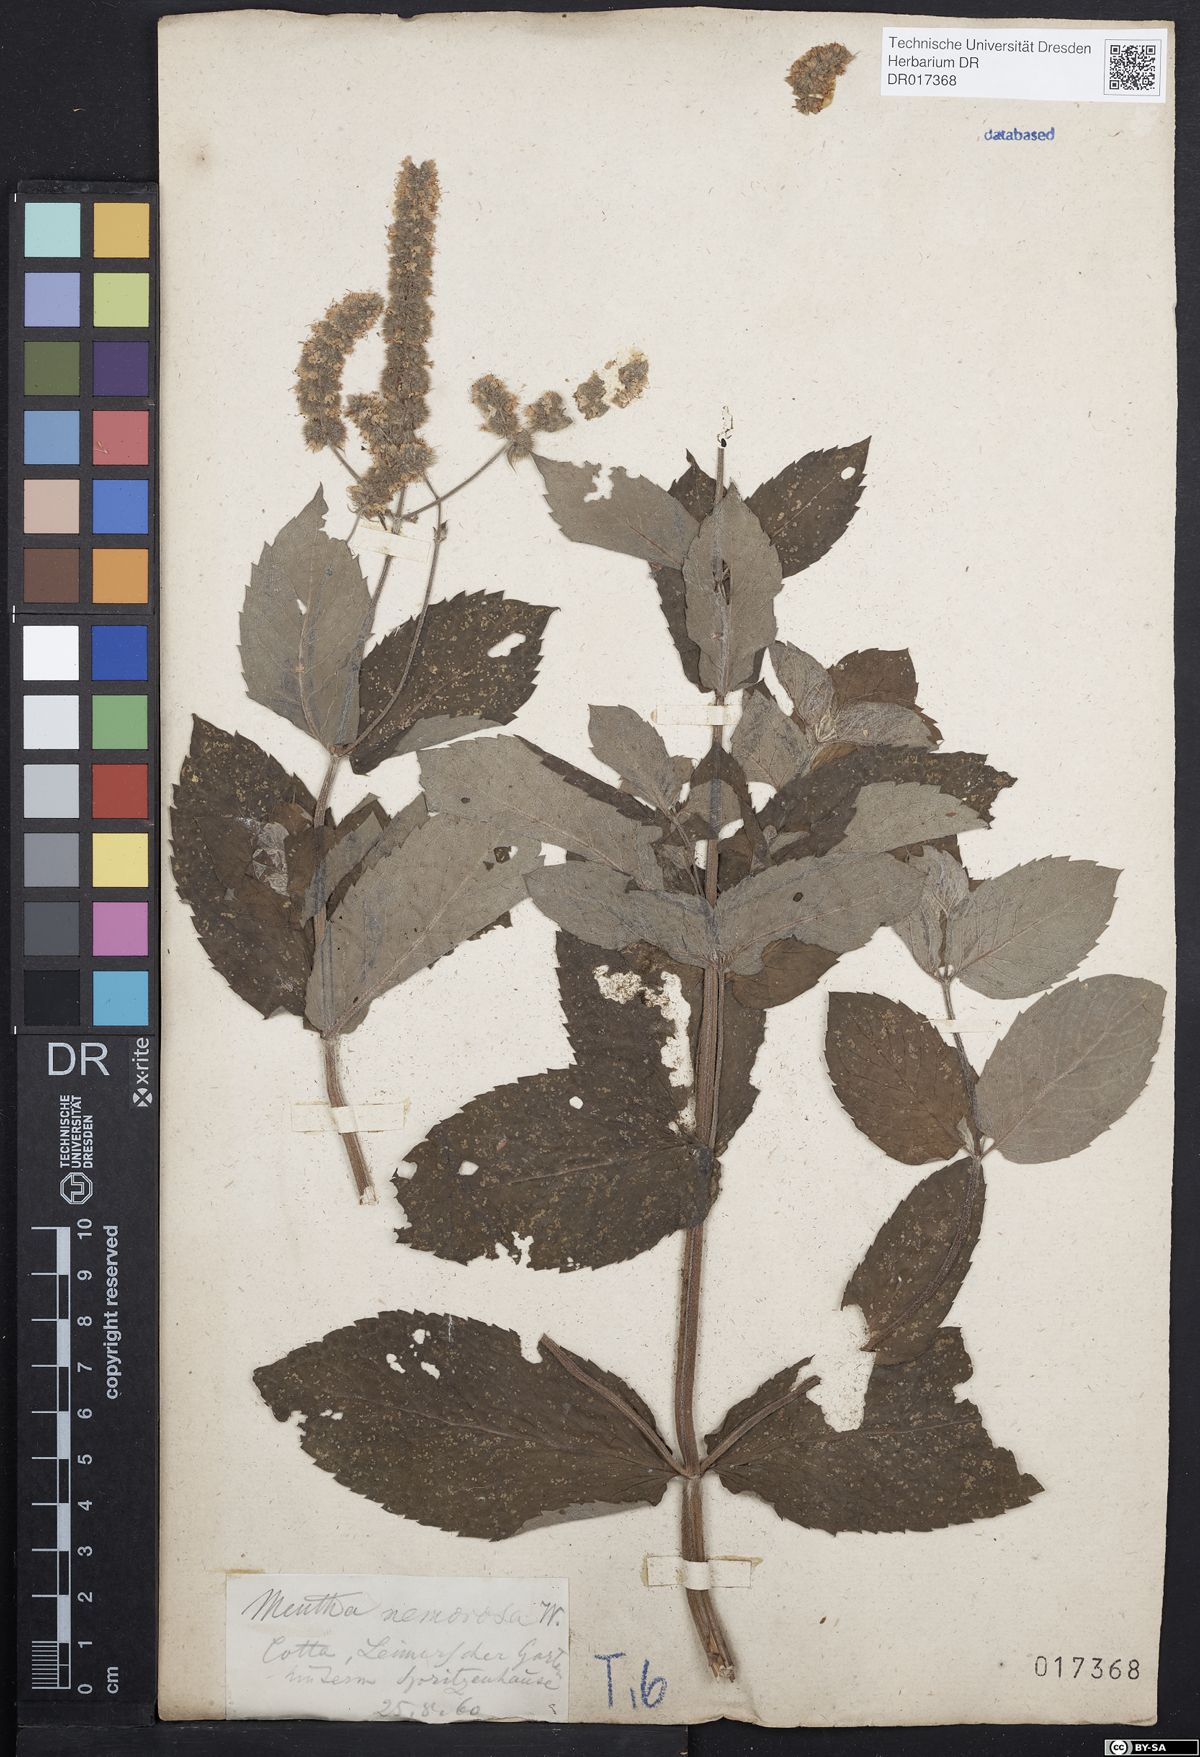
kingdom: Plantae
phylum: Tracheophyta
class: Magnoliopsida
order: Lamiales
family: Lamiaceae
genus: Mentha
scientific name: Mentha villosa
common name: Apple mint
